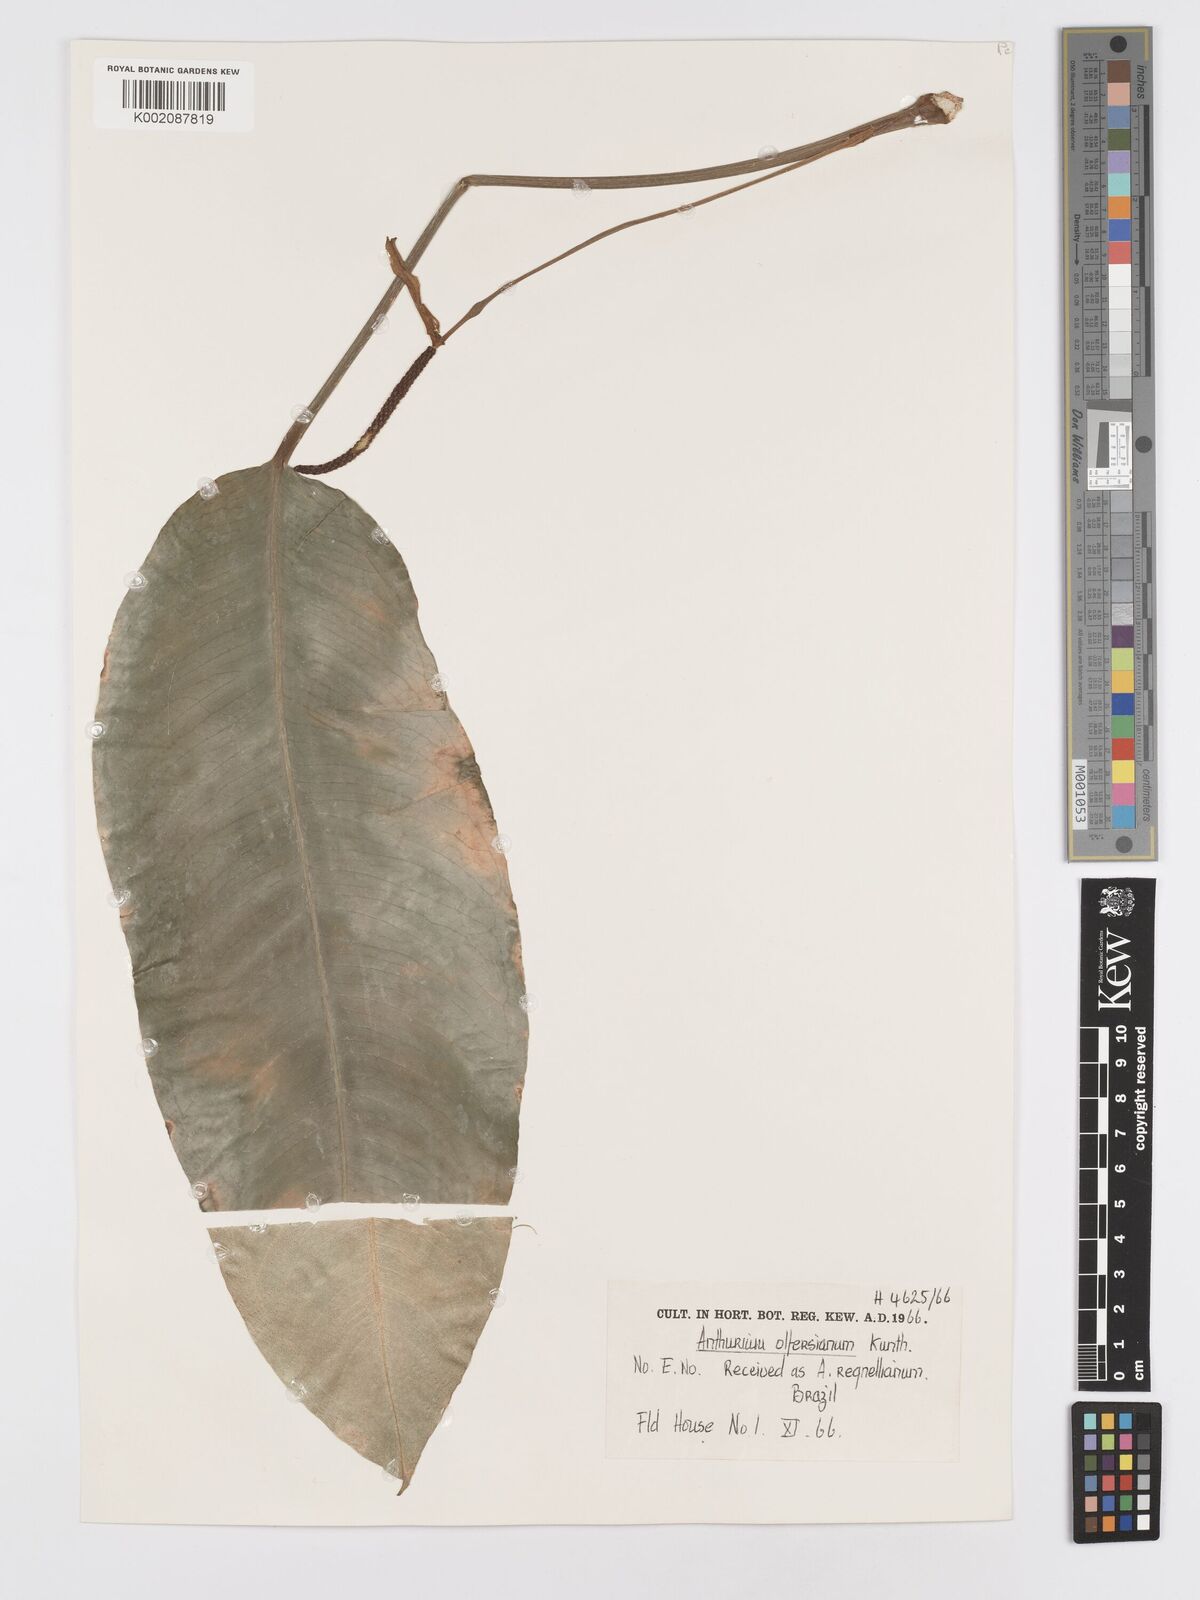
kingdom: Plantae
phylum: Tracheophyta
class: Liliopsida
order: Alismatales
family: Araceae
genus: Anthurium
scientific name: Anthurium parasiticum
